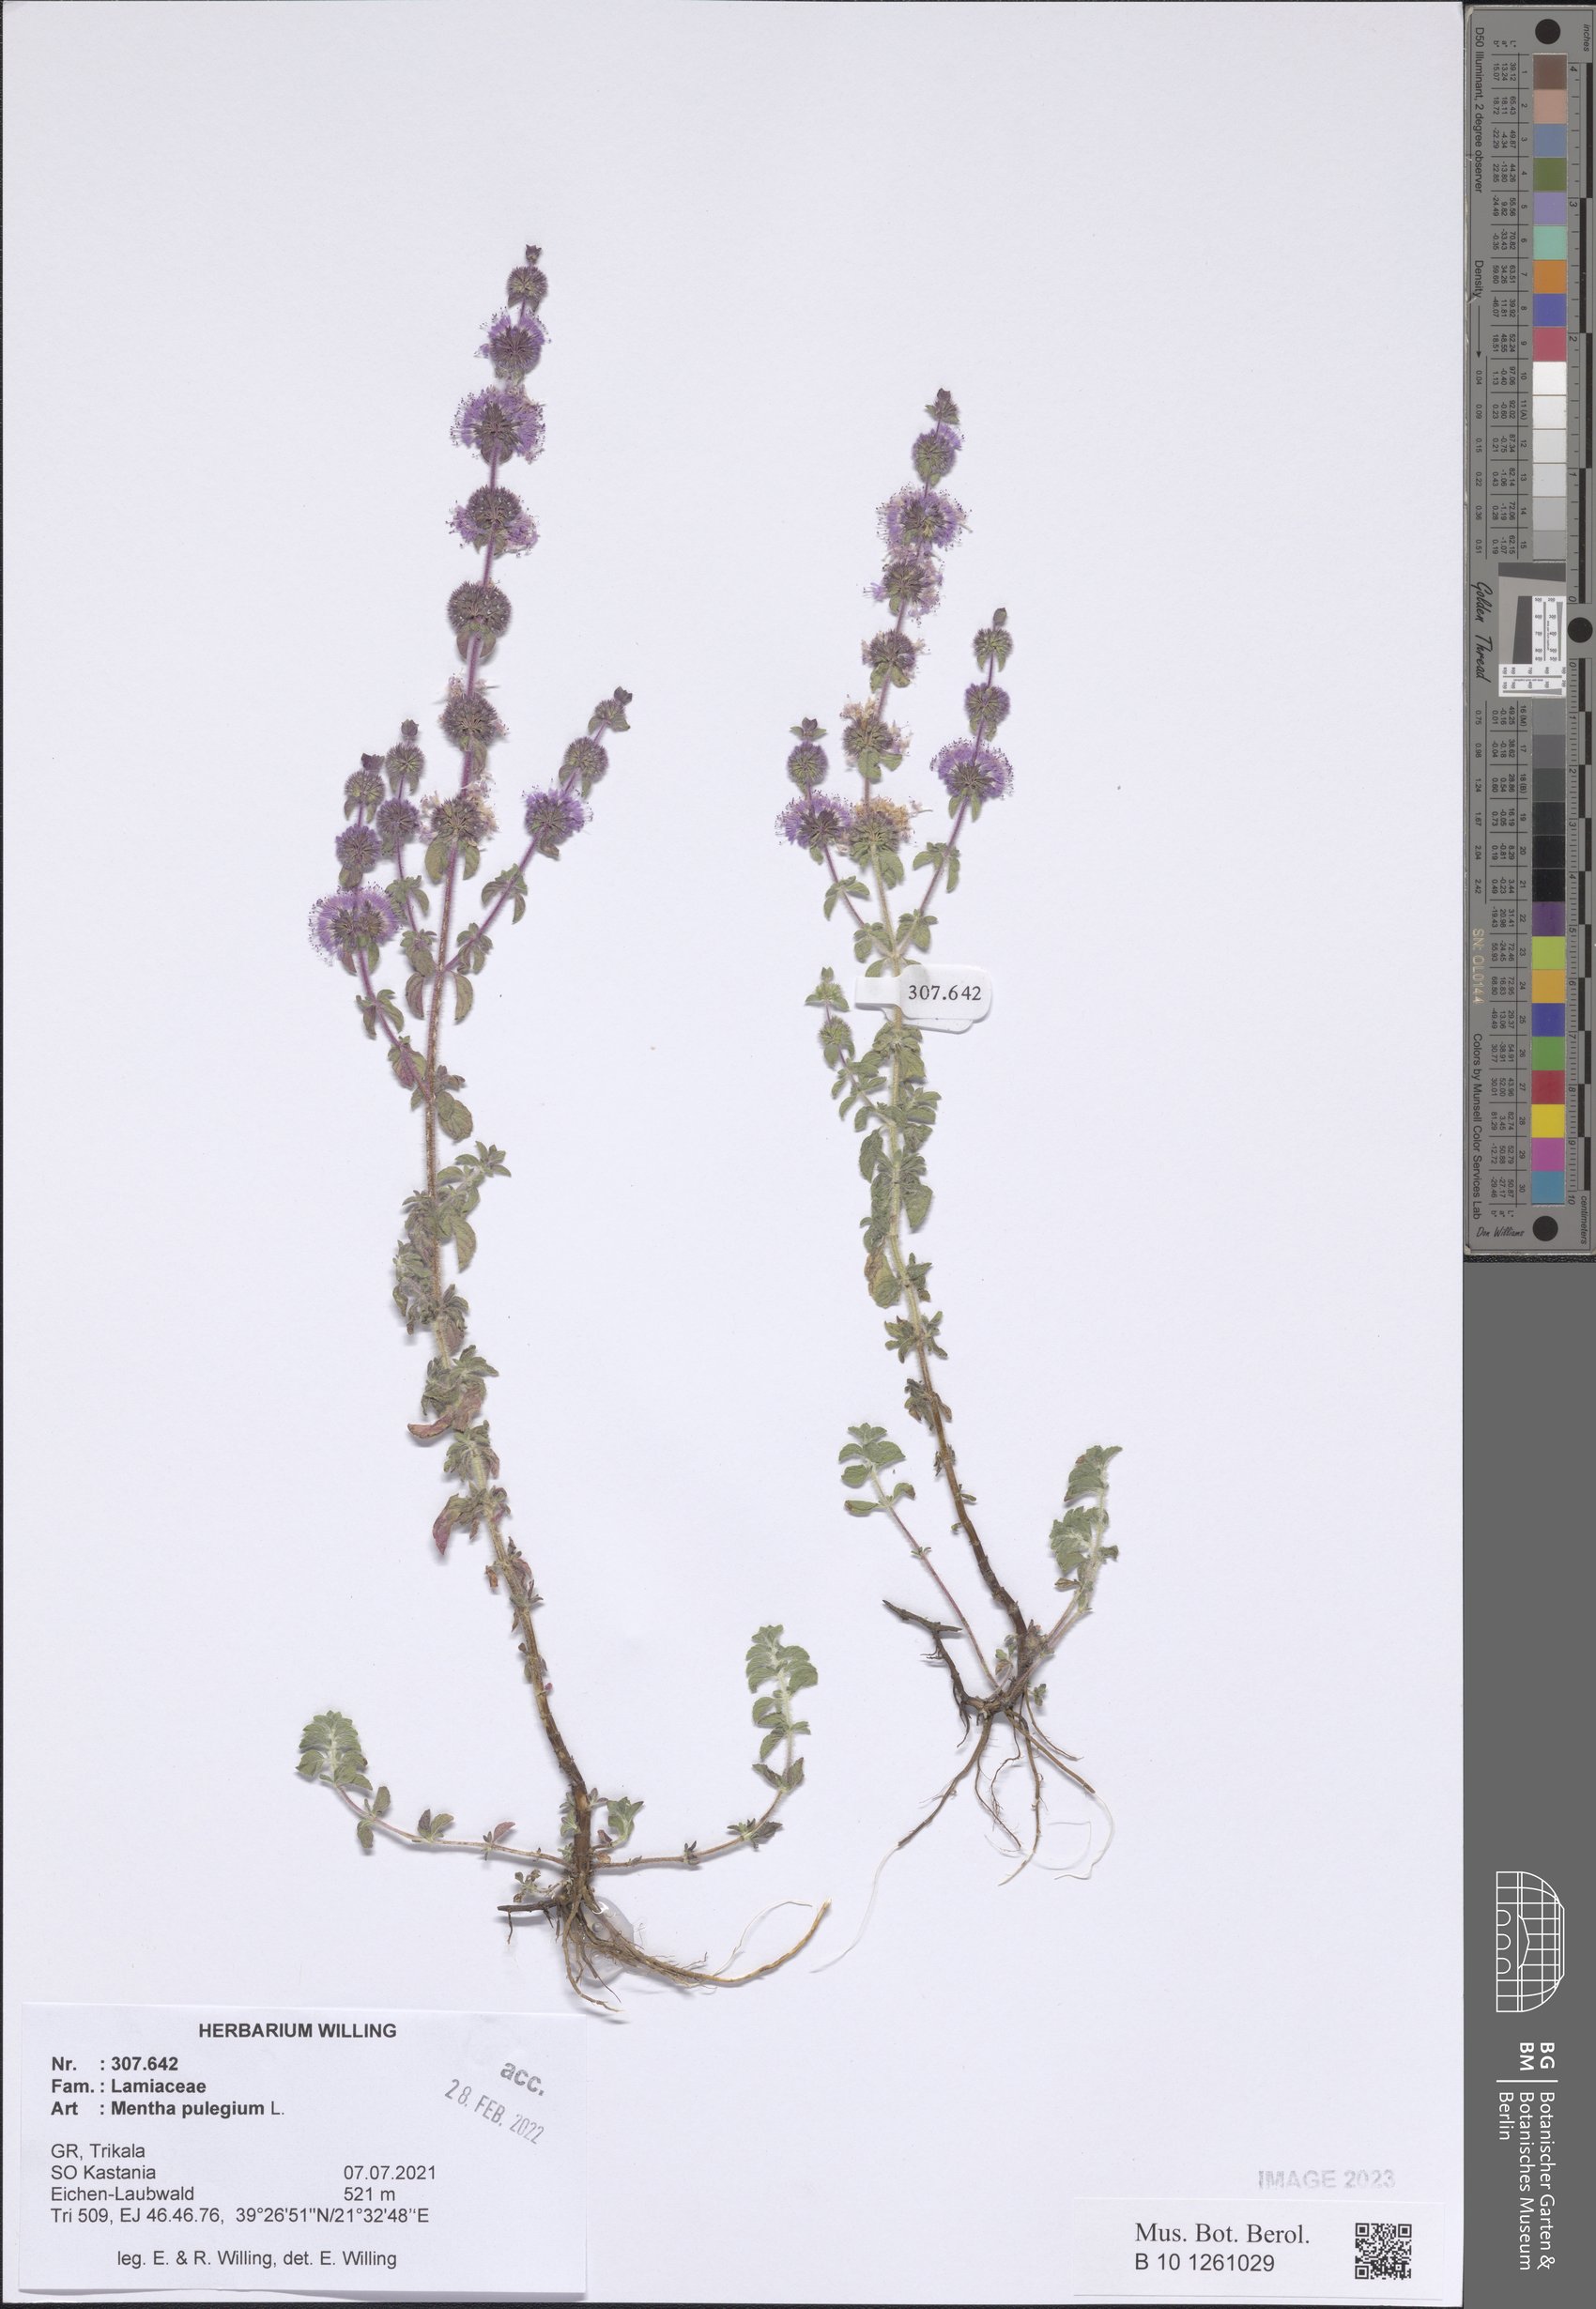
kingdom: Plantae
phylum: Tracheophyta
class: Magnoliopsida
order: Lamiales
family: Lamiaceae
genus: Mentha
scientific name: Mentha pulegium
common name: Pennyroyal
